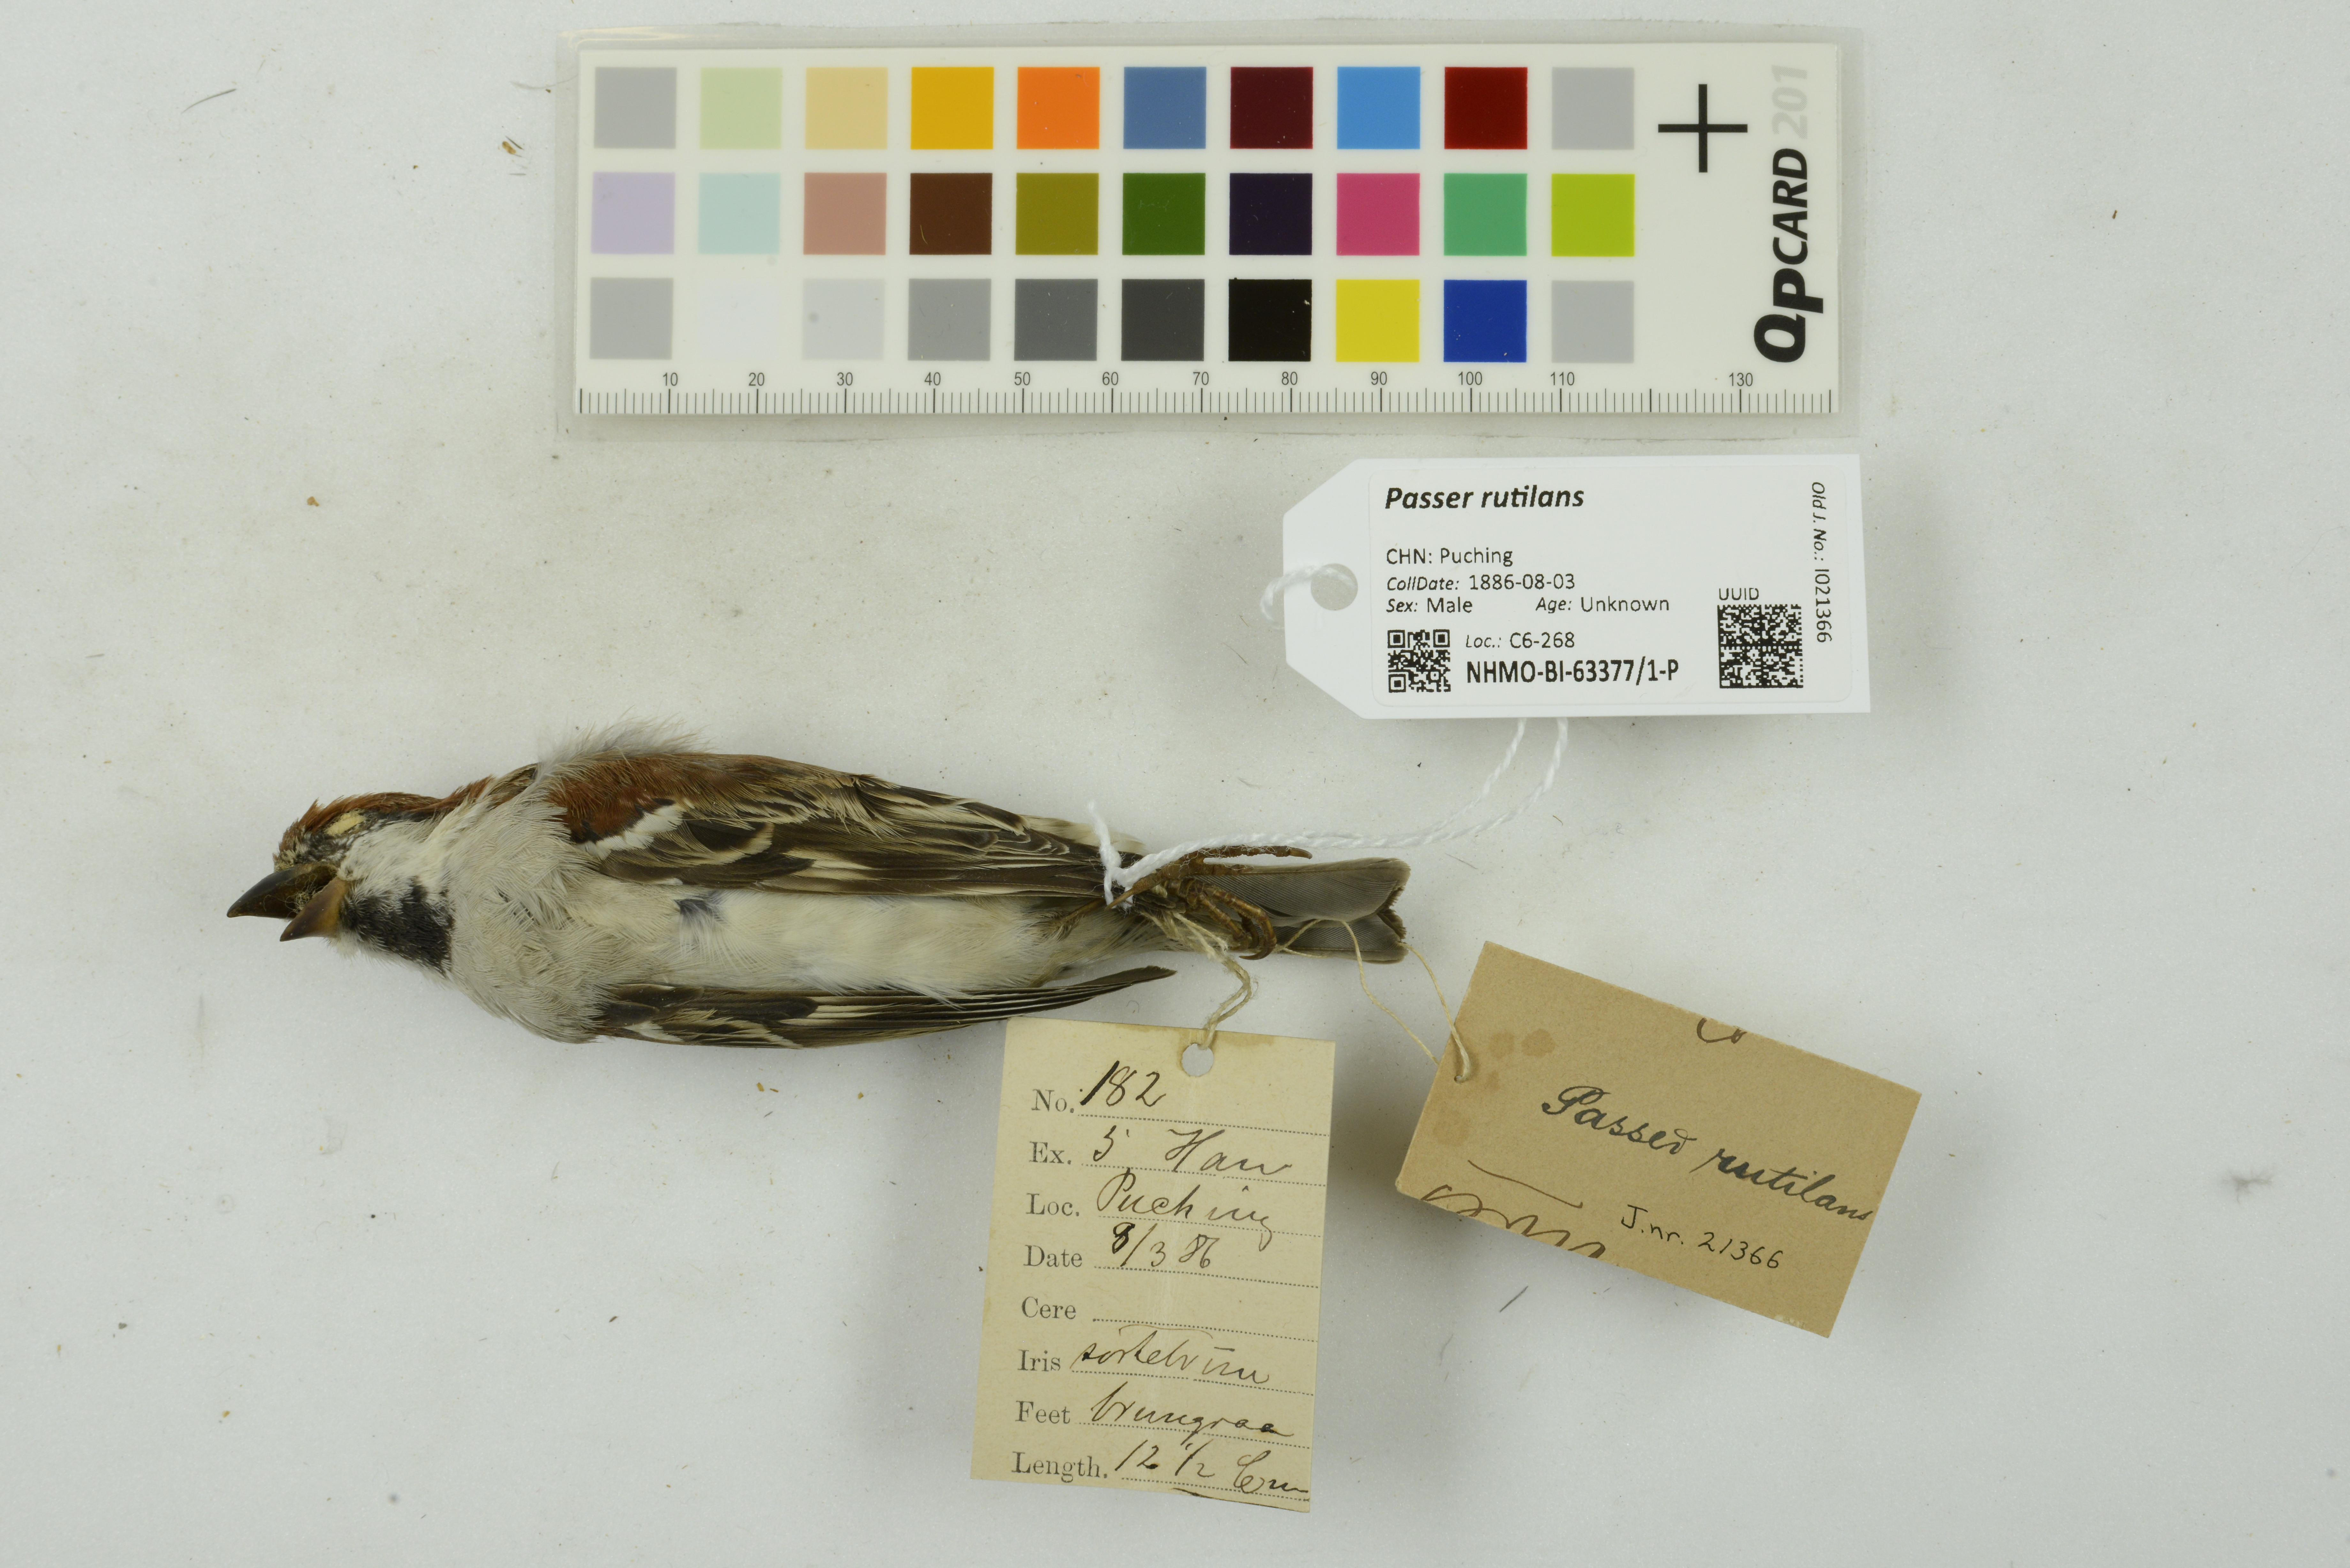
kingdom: Animalia
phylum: Chordata
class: Aves
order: Passeriformes
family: Passeridae
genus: Passer
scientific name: Passer rutilans
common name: Russet sparrow
